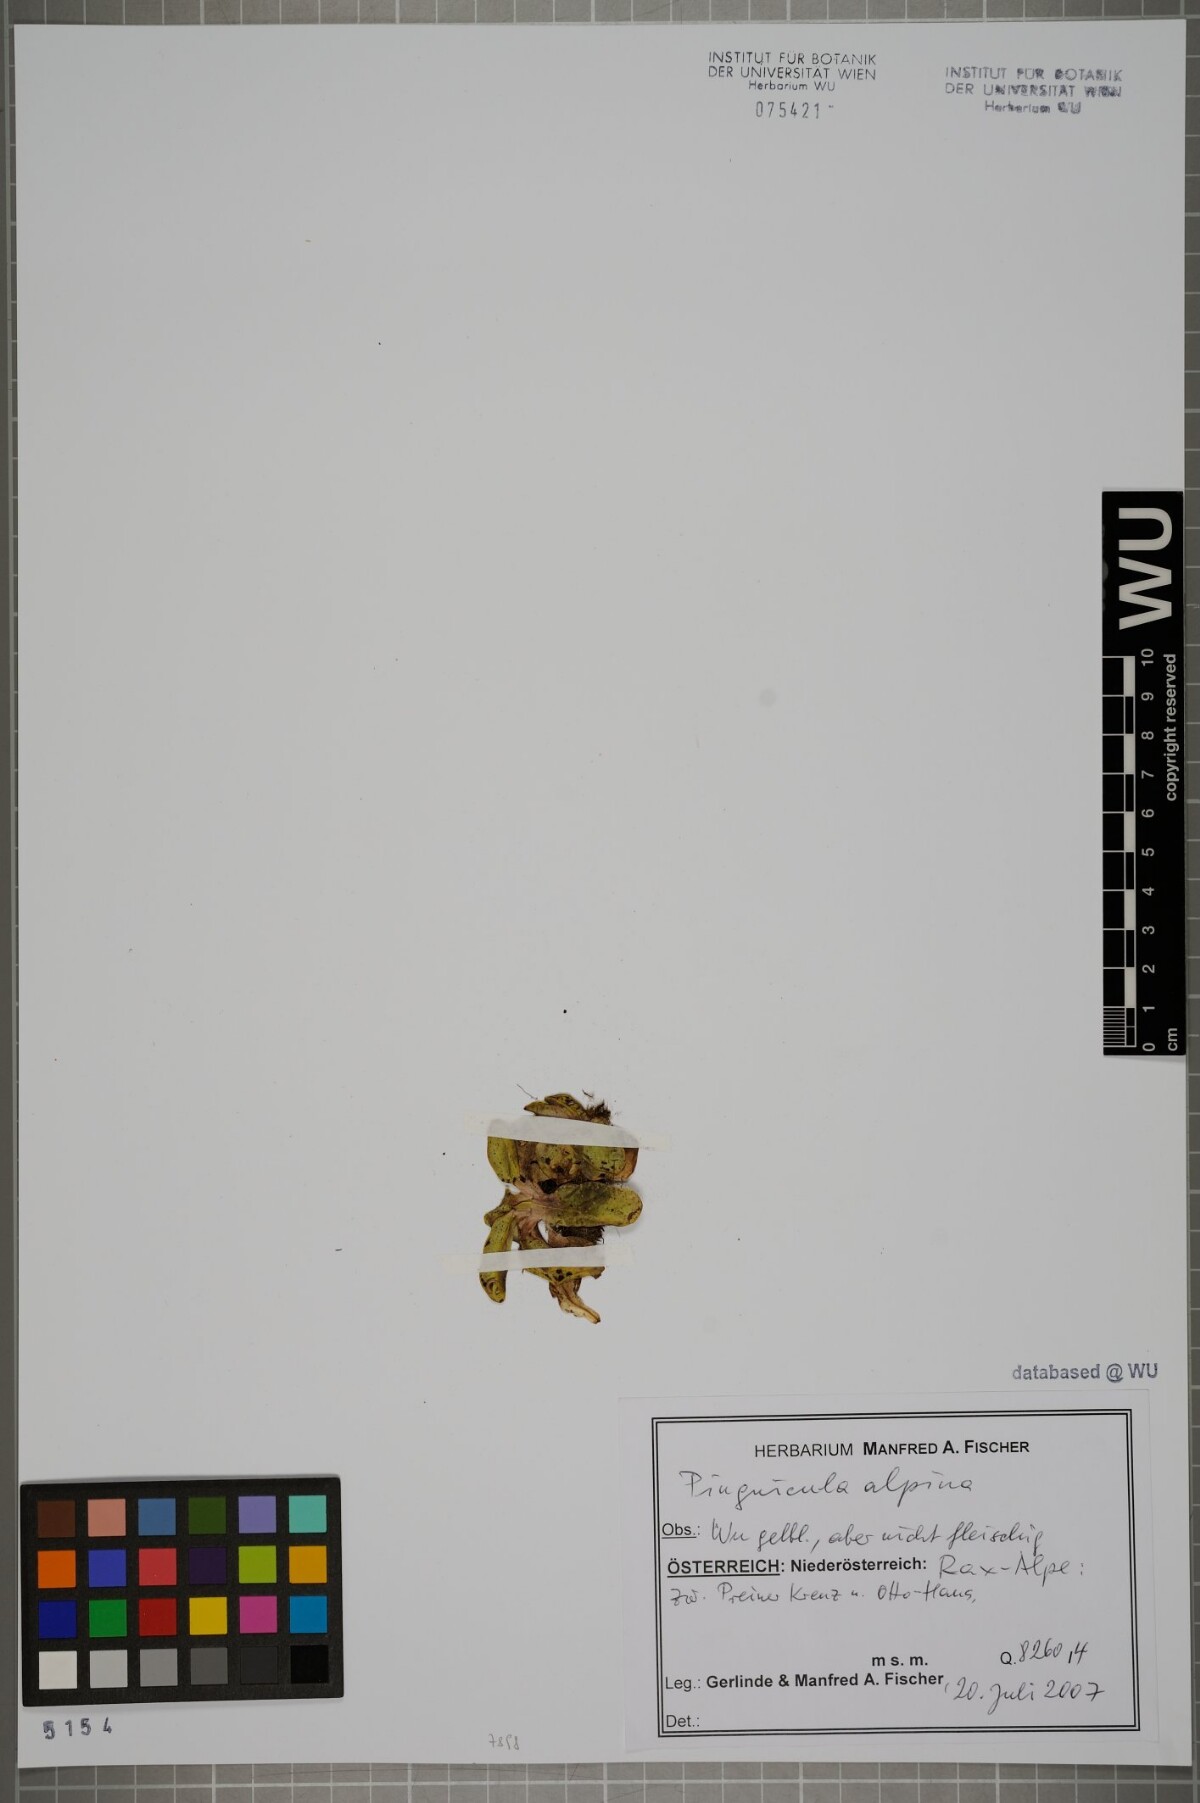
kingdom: Plantae
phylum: Tracheophyta
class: Magnoliopsida
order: Lamiales
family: Lentibulariaceae
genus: Pinguicula
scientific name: Pinguicula alpina
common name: Alpine butterwort
